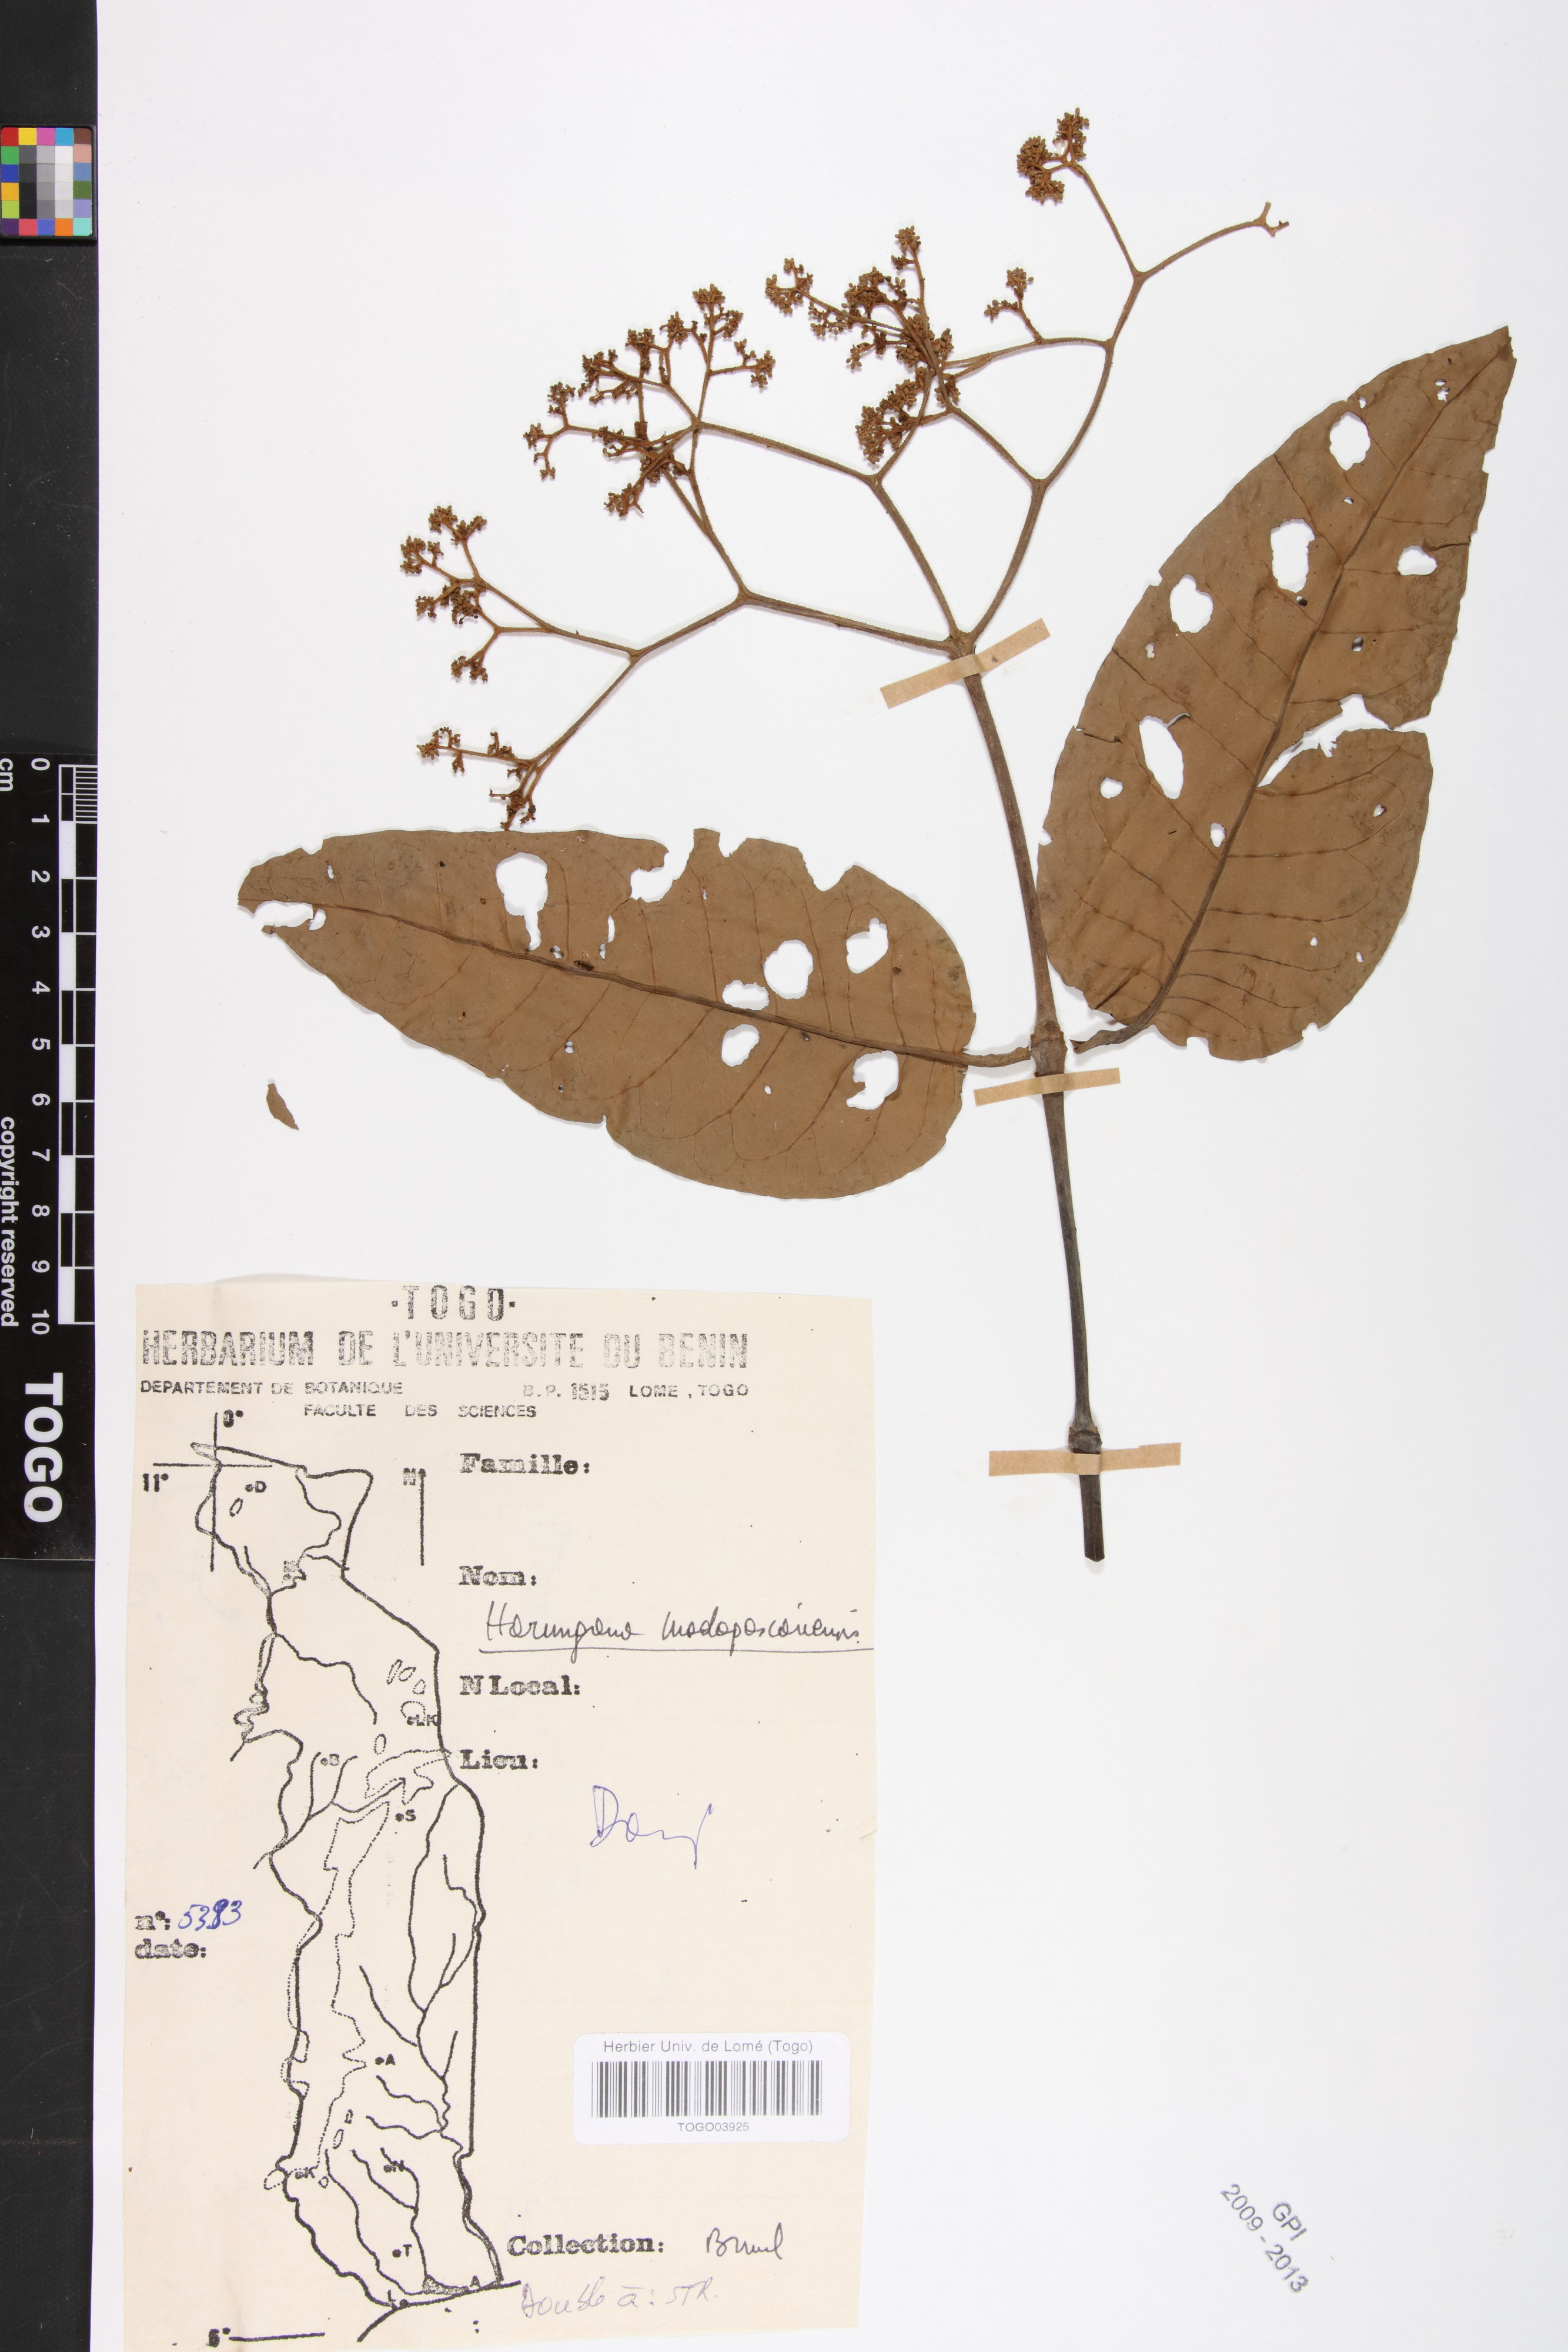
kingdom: Plantae
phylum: Tracheophyta
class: Magnoliopsida
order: Malpighiales
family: Hypericaceae
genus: Harungana
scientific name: Harungana madagascariensis
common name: Orange milktree
